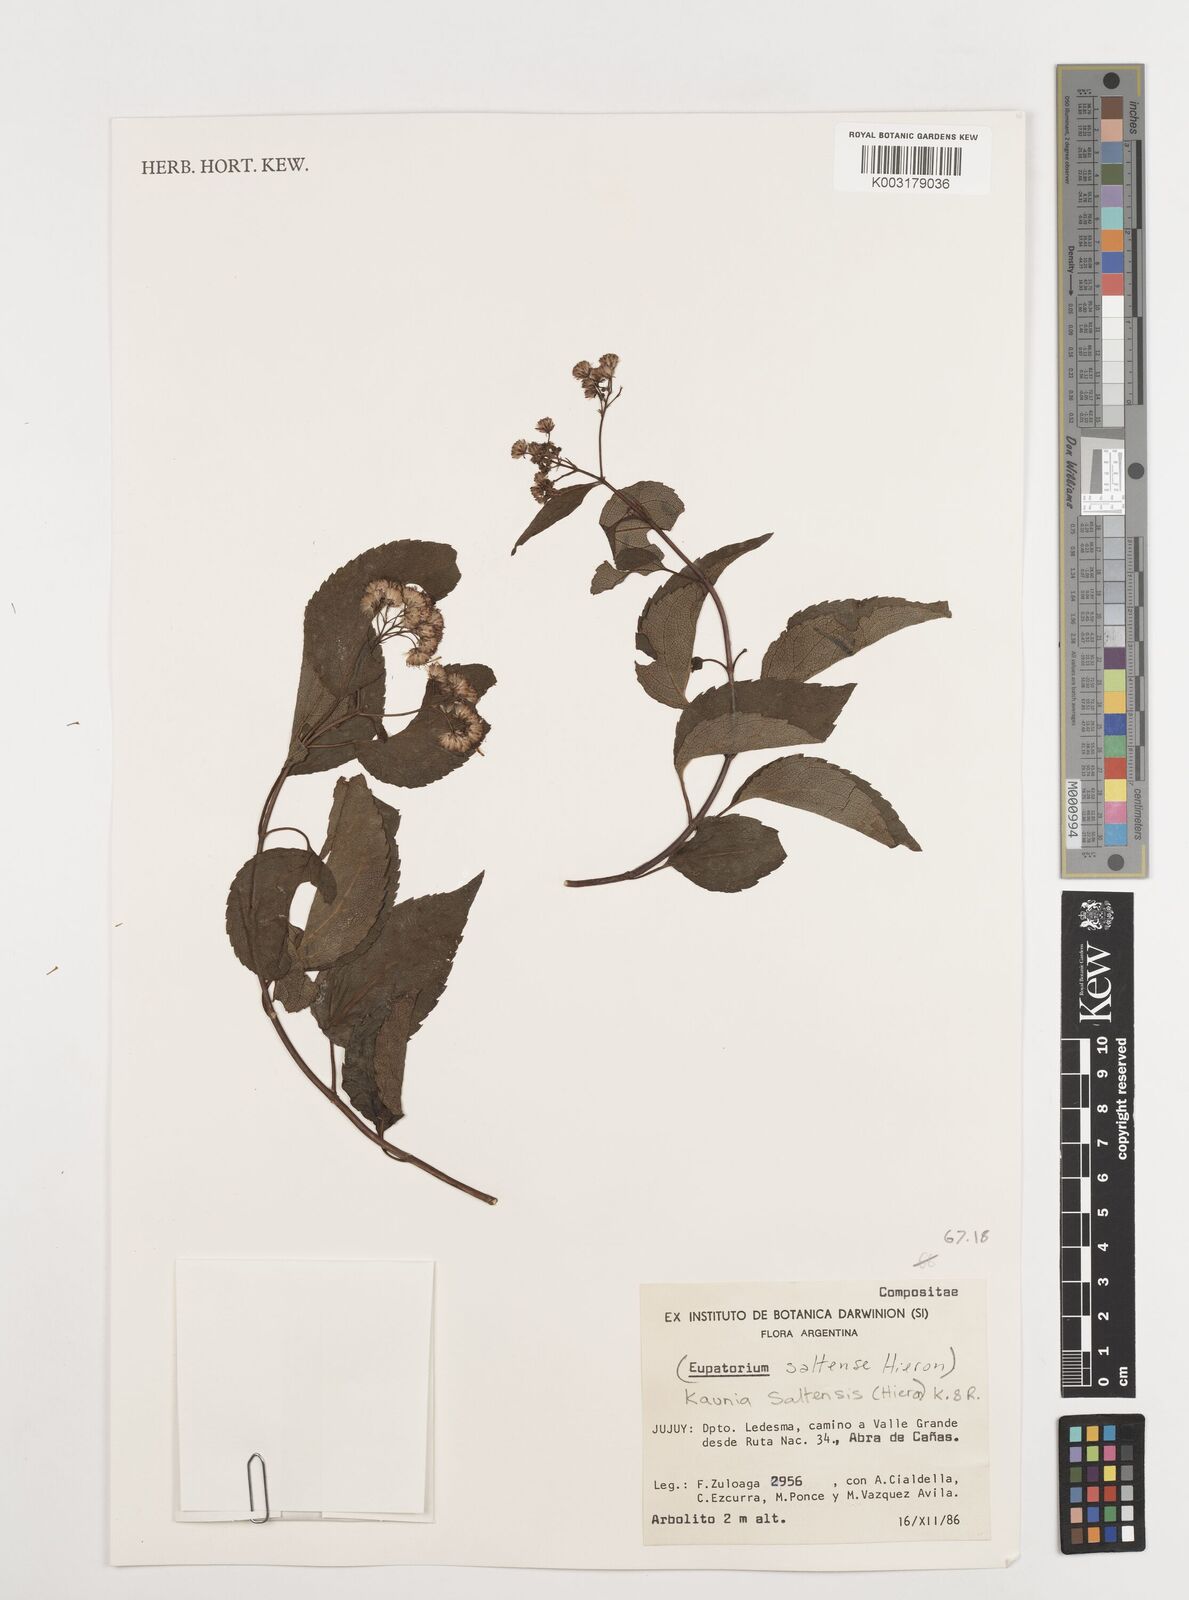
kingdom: Plantae
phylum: Tracheophyta
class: Magnoliopsida
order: Asterales
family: Asteraceae
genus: Kaunia
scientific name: Kaunia saltensis
